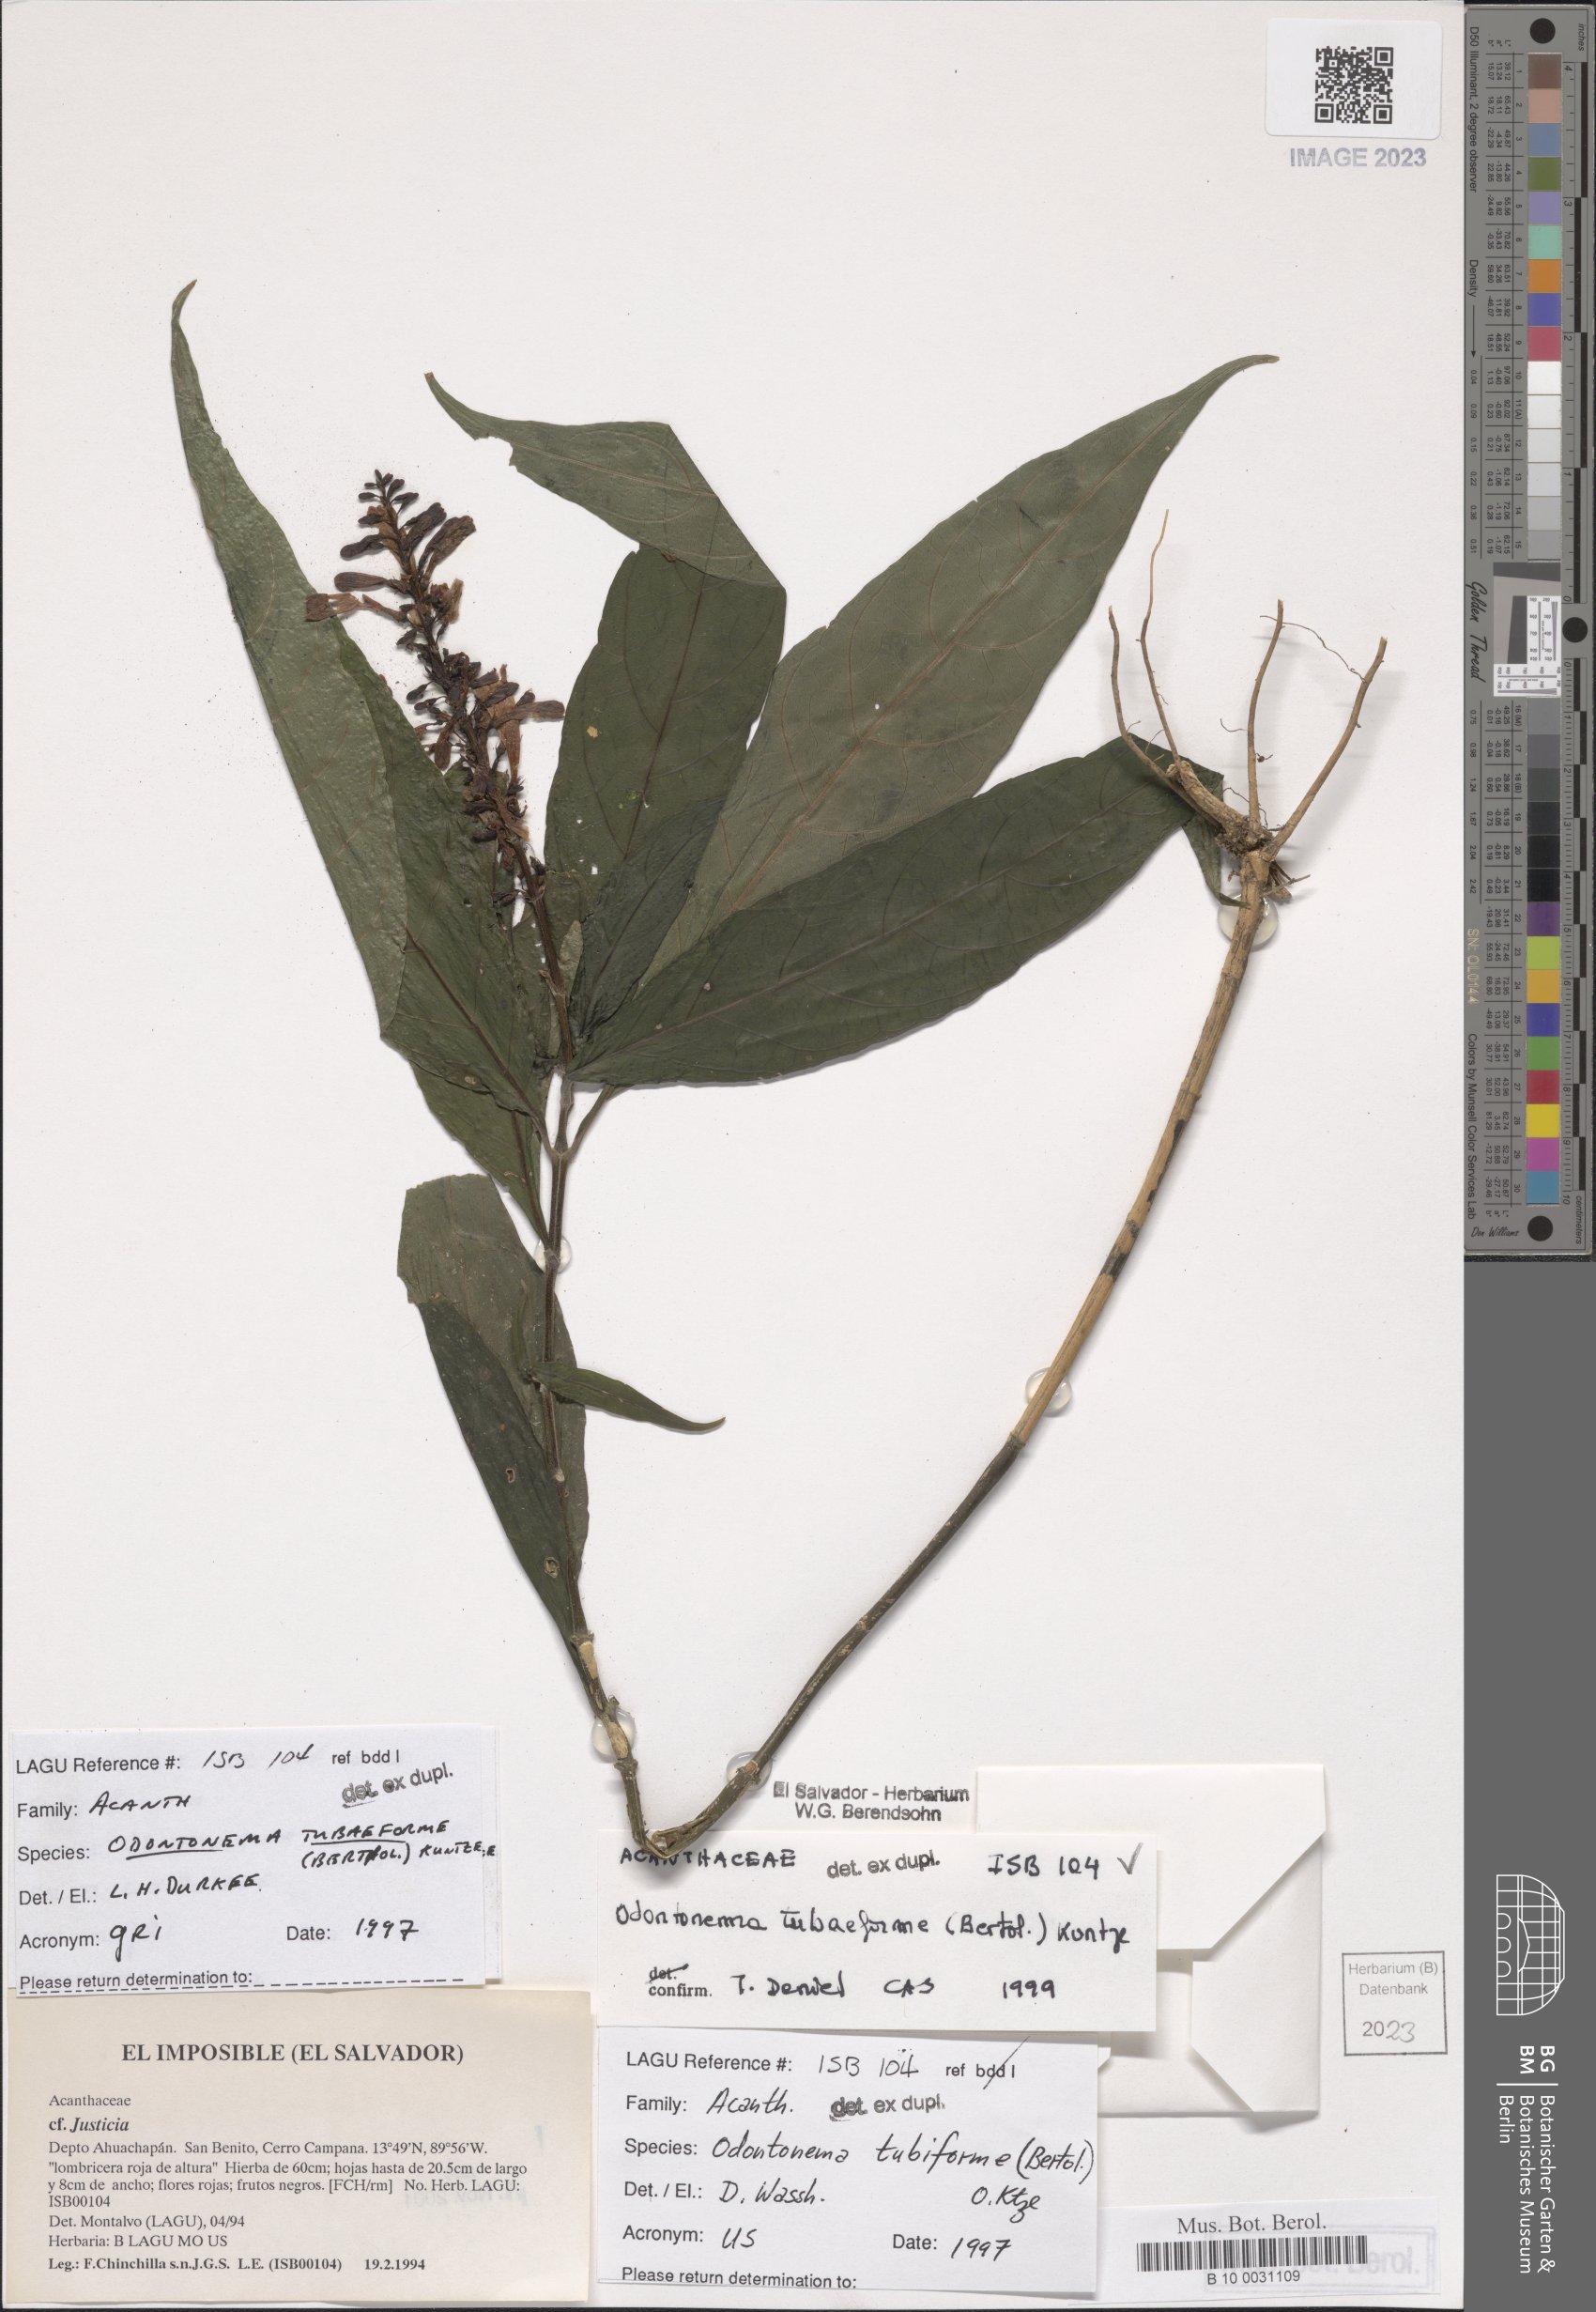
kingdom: Plantae
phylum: Tracheophyta
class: Magnoliopsida
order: Lamiales
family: Acanthaceae
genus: Odontonema
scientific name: Odontonema tubaeforme
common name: Firespike
